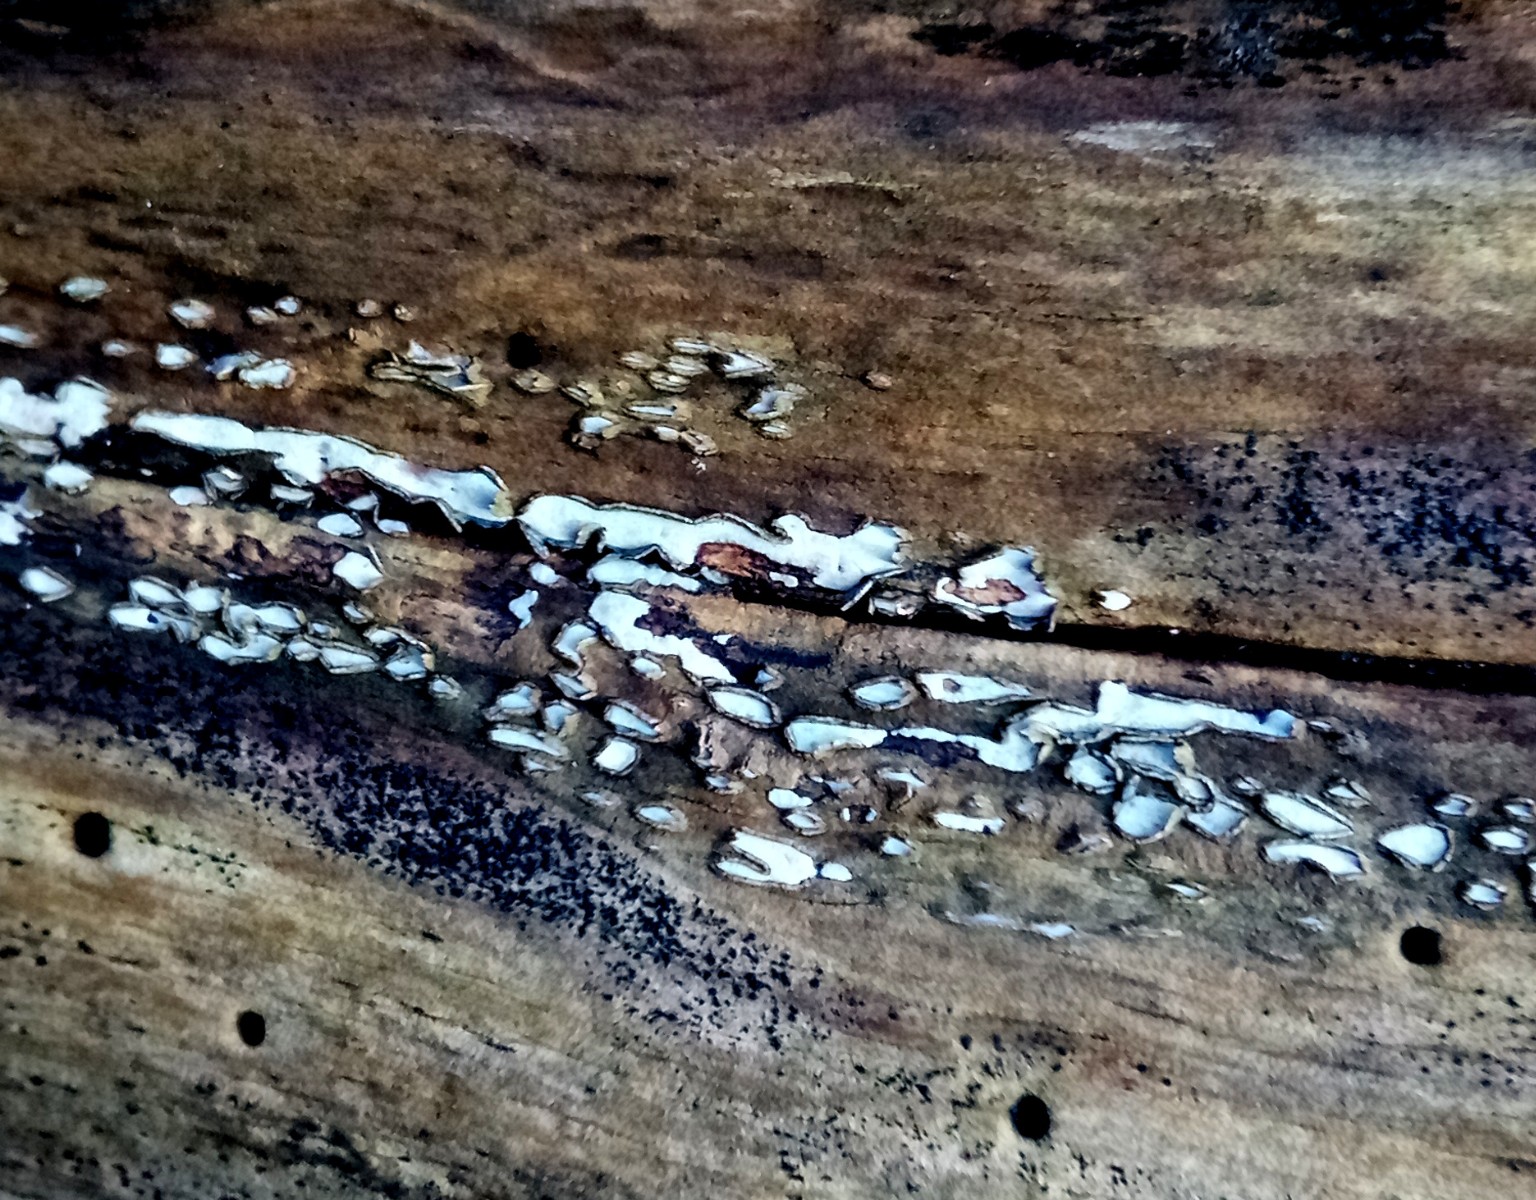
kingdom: Fungi
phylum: Ascomycota
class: Leotiomycetes
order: Chaetomellales
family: Marthamycetaceae
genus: Propolis
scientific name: Propolis farinosa
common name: almindelig vedsprængerskive
